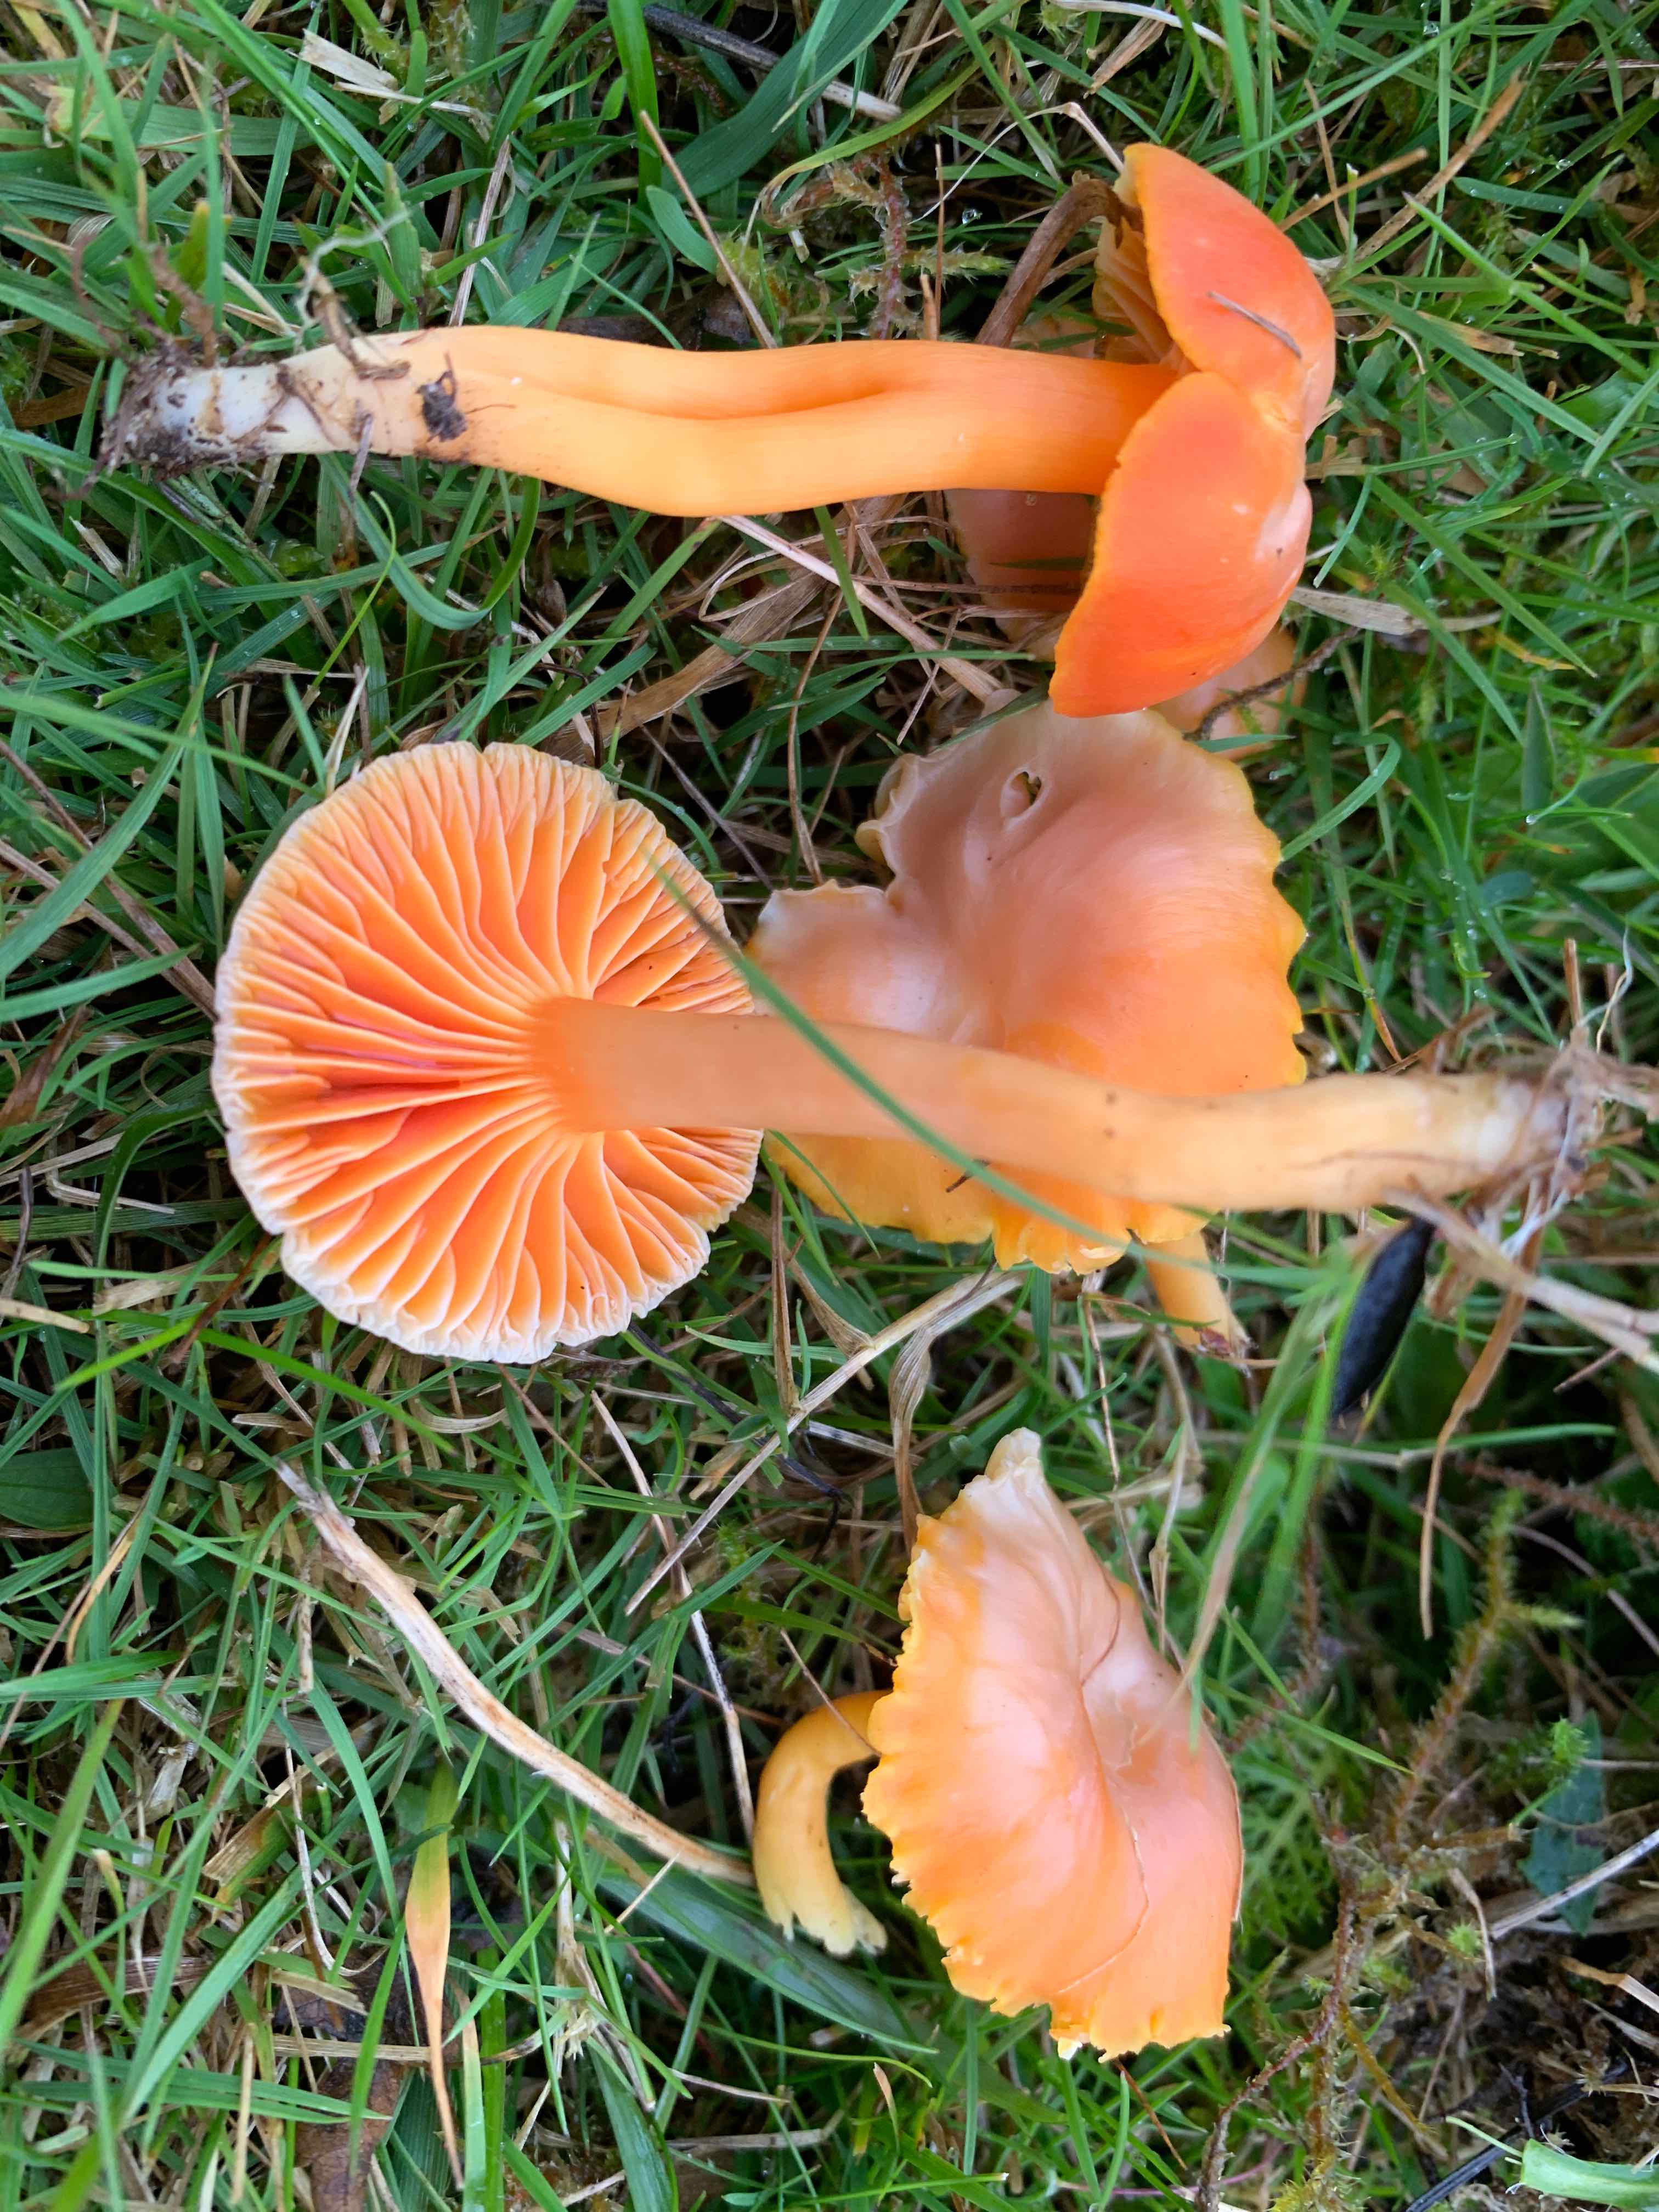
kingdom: Fungi
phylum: Basidiomycota
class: Agaricomycetes
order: Agaricales
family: Hygrophoraceae
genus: Hygrocybe
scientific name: Hygrocybe reidii
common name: honning-vokshat
